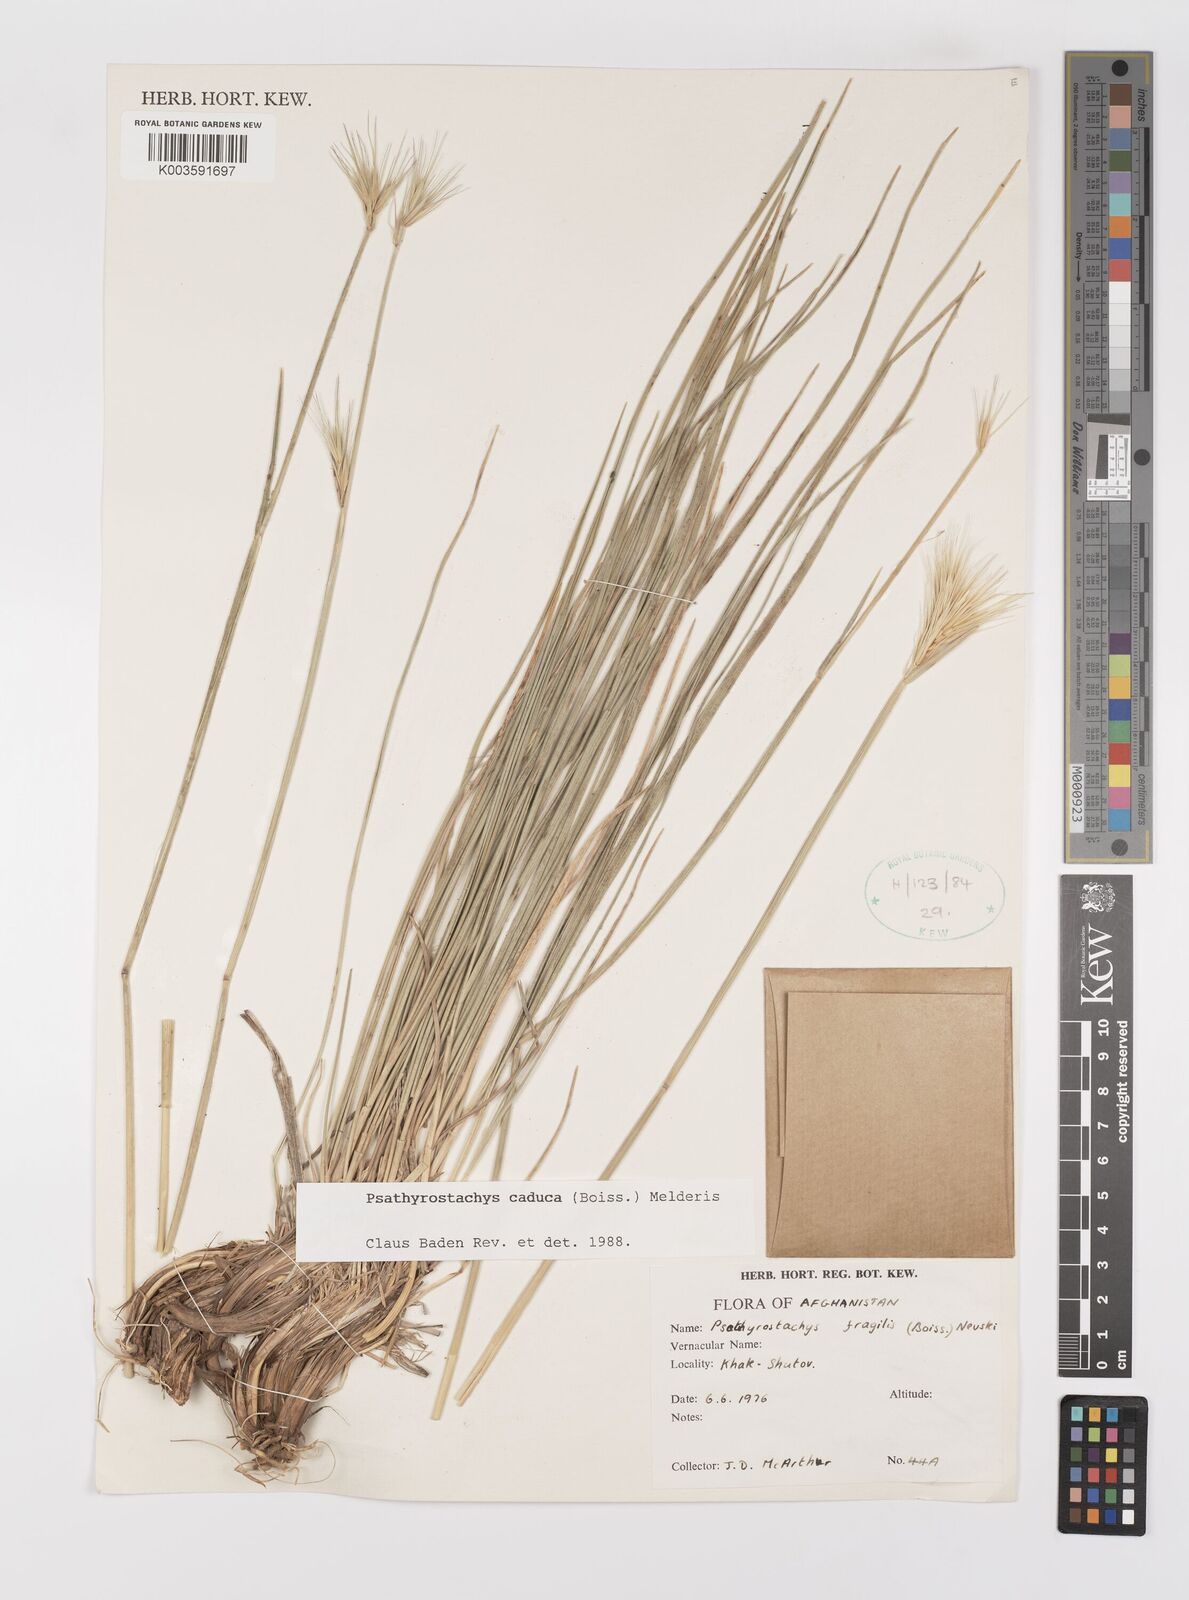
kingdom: Plantae
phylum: Tracheophyta
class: Liliopsida
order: Poales
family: Poaceae
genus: Psathyrostachys
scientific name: Psathyrostachys caduca
